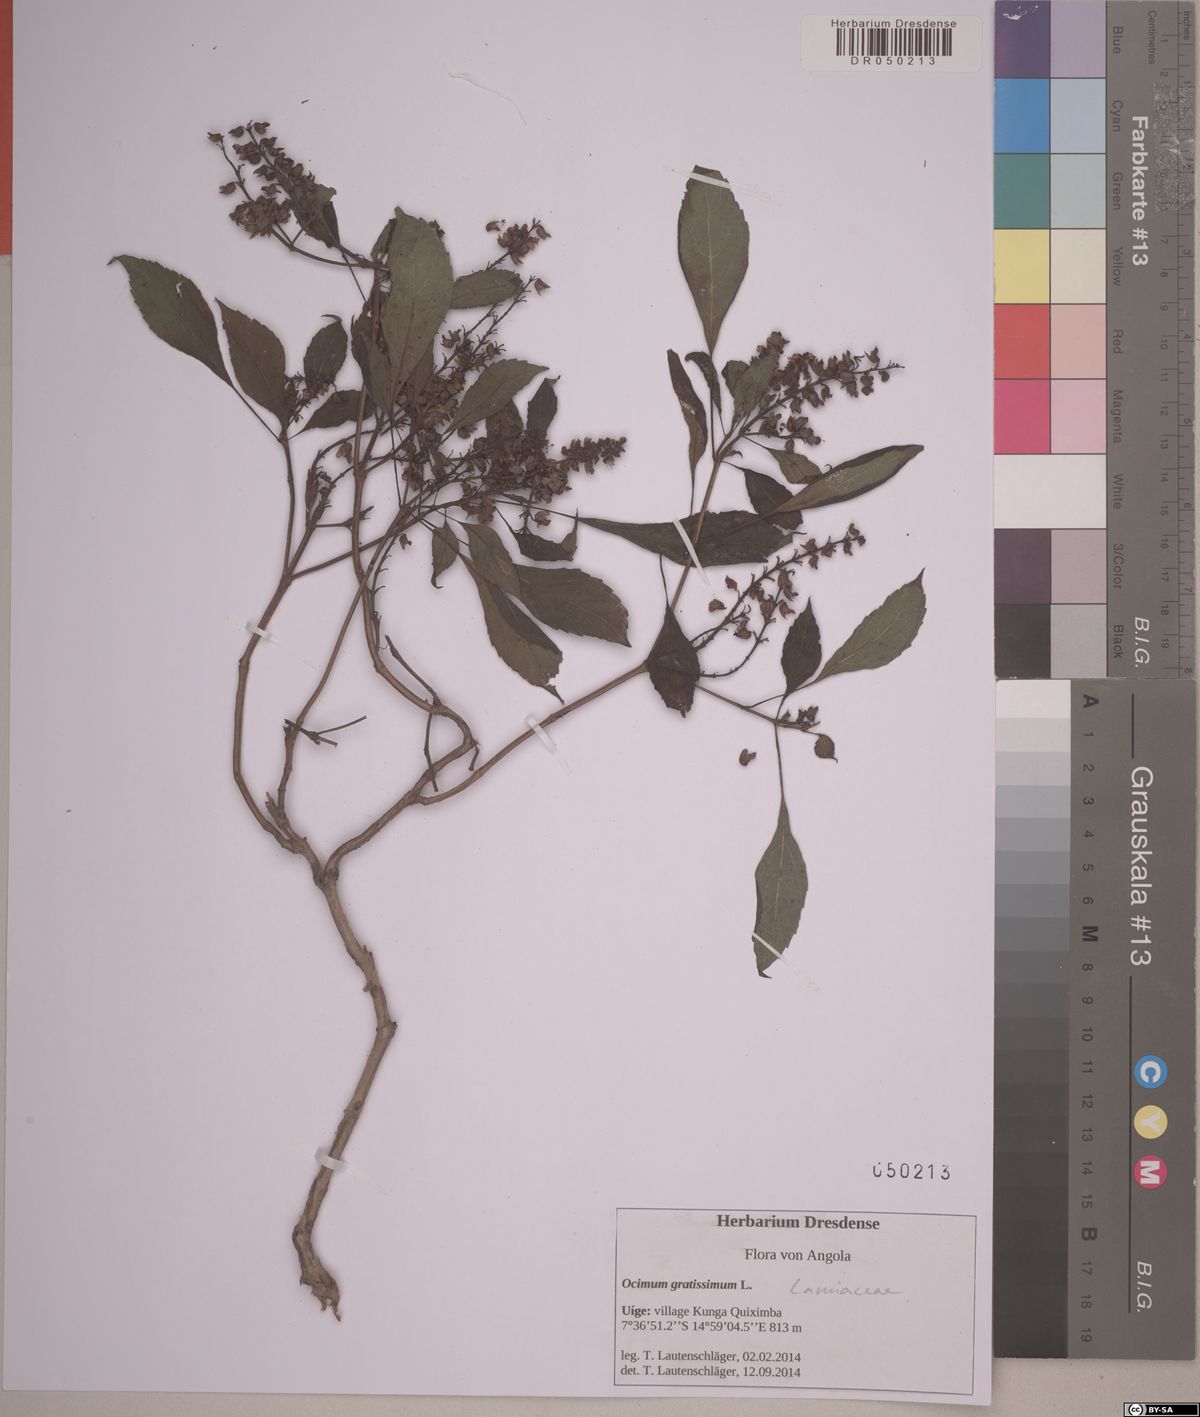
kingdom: Plantae
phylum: Tracheophyta
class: Magnoliopsida
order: Lamiales
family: Lamiaceae
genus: Ocimum
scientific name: Ocimum gratissimum
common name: African basil
